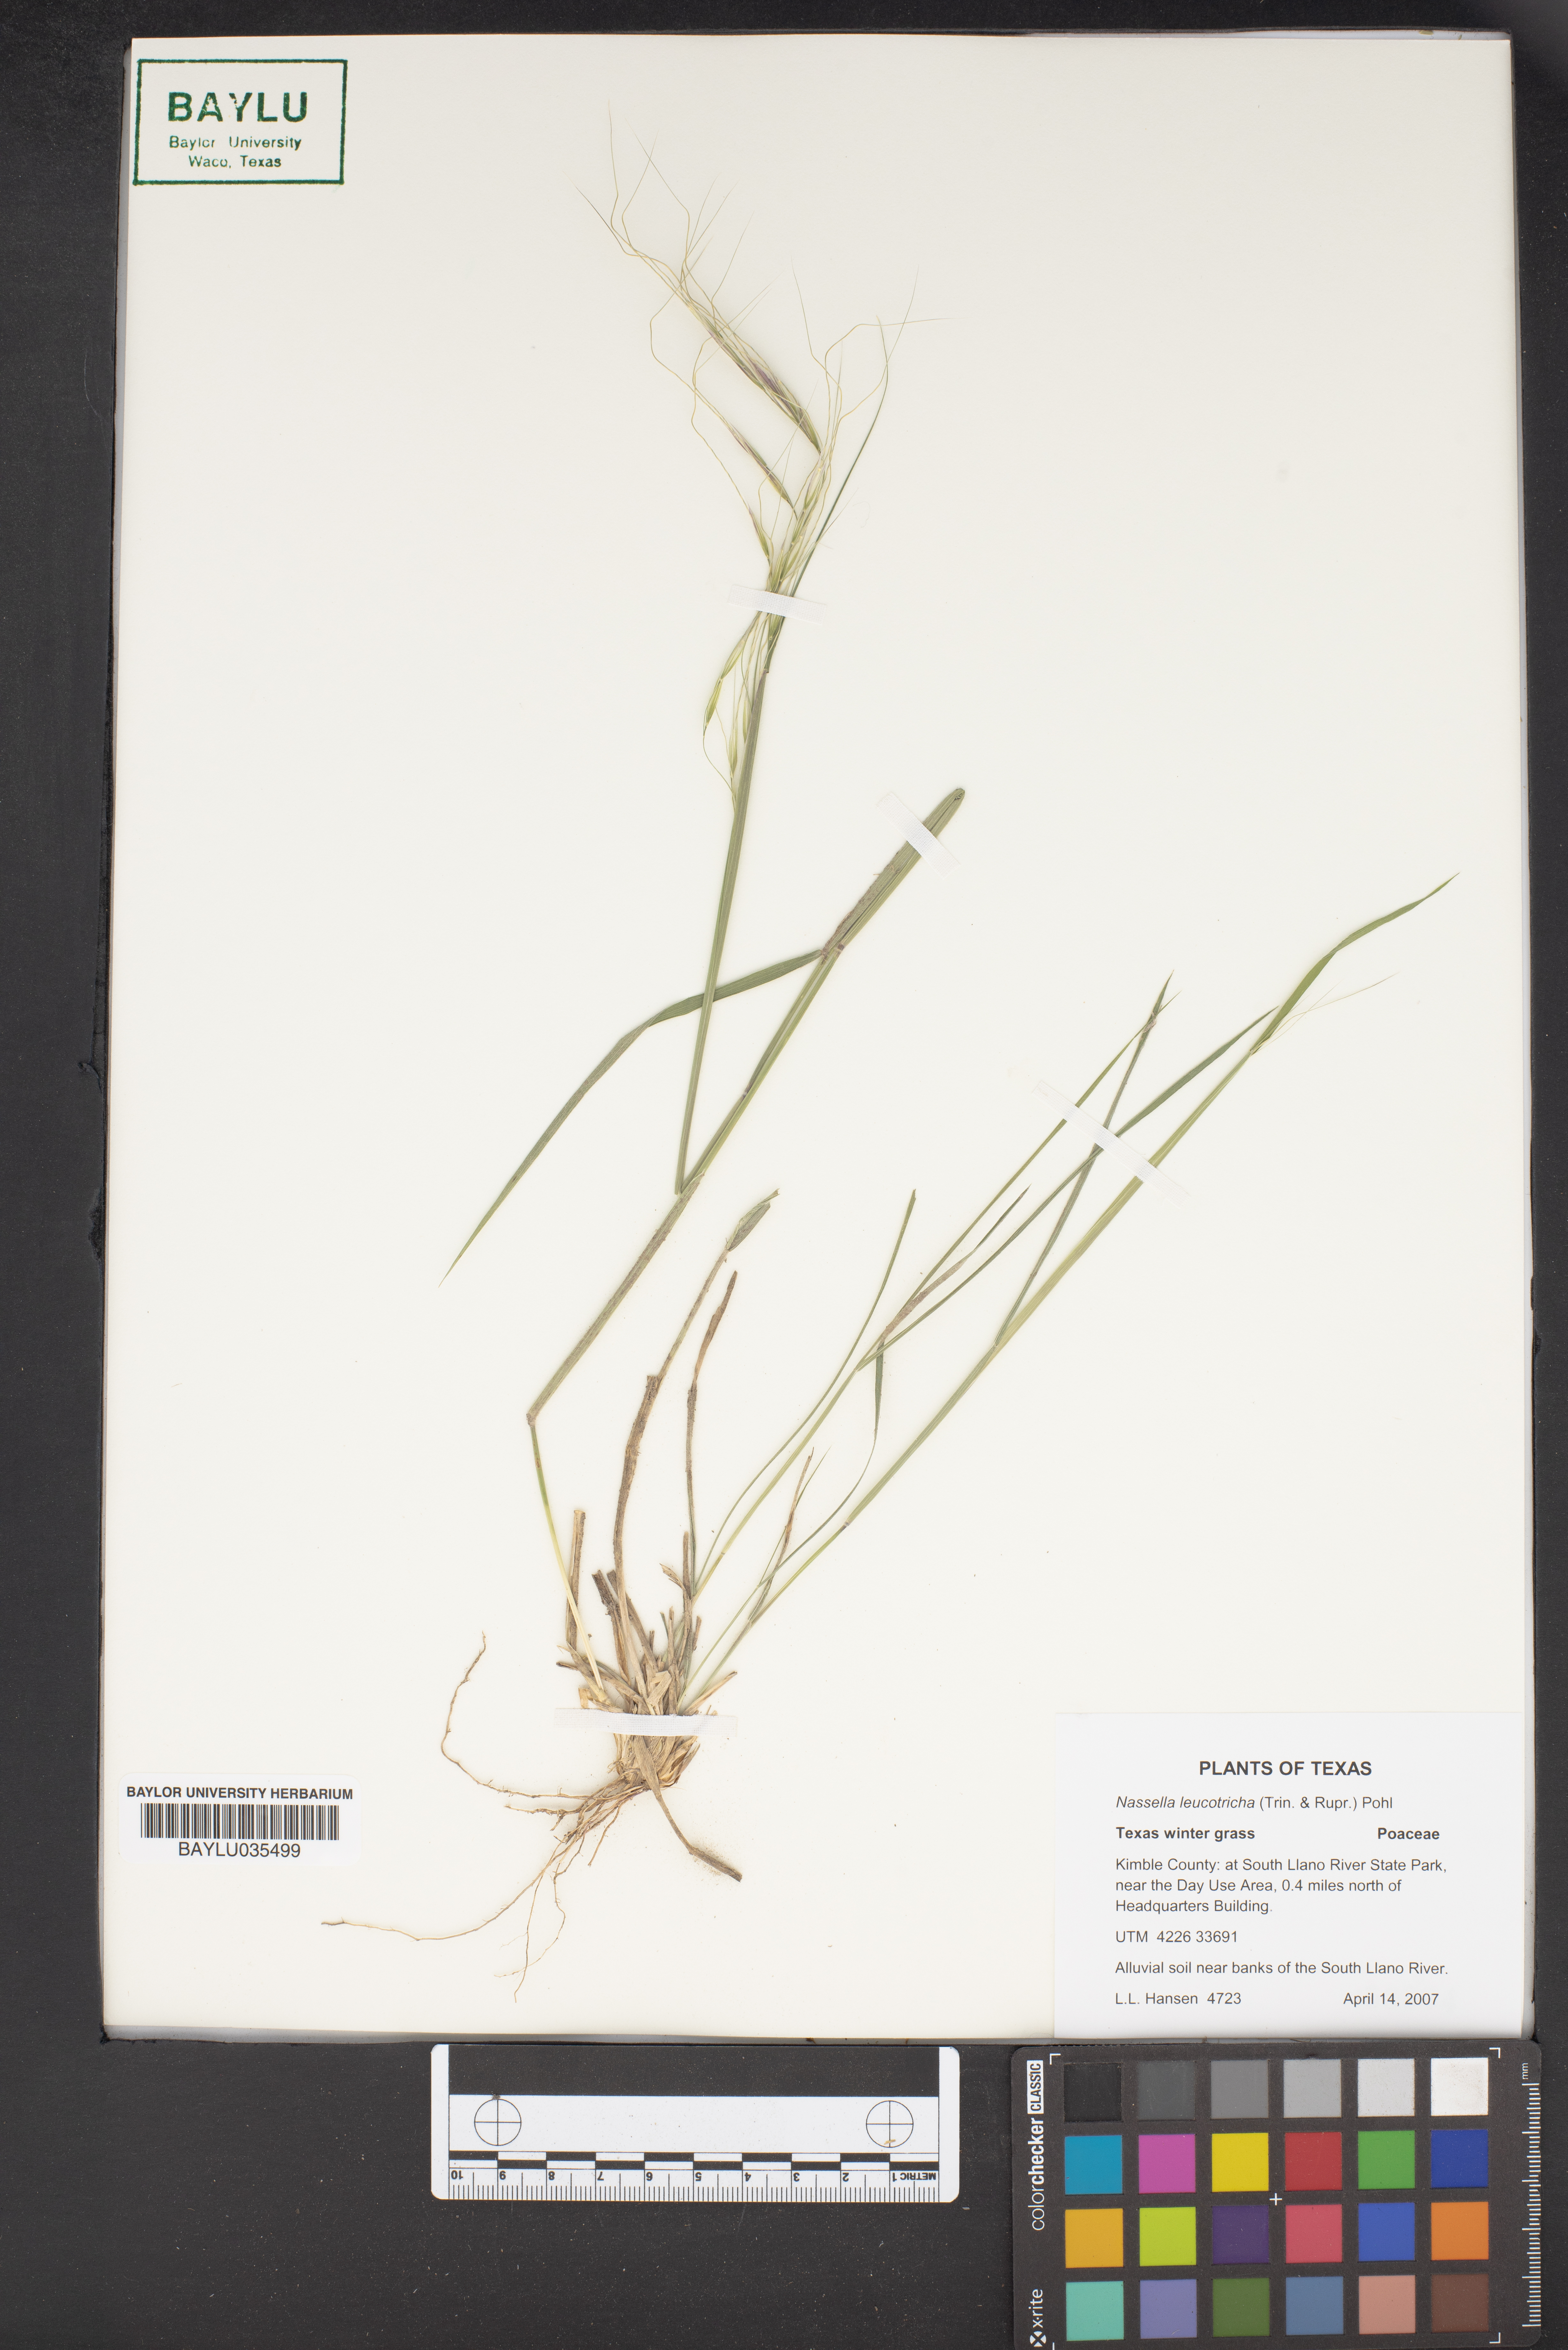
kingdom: Plantae
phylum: Tracheophyta
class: Liliopsida
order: Poales
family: Poaceae
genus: Nassella
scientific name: Nassella leucotricha
